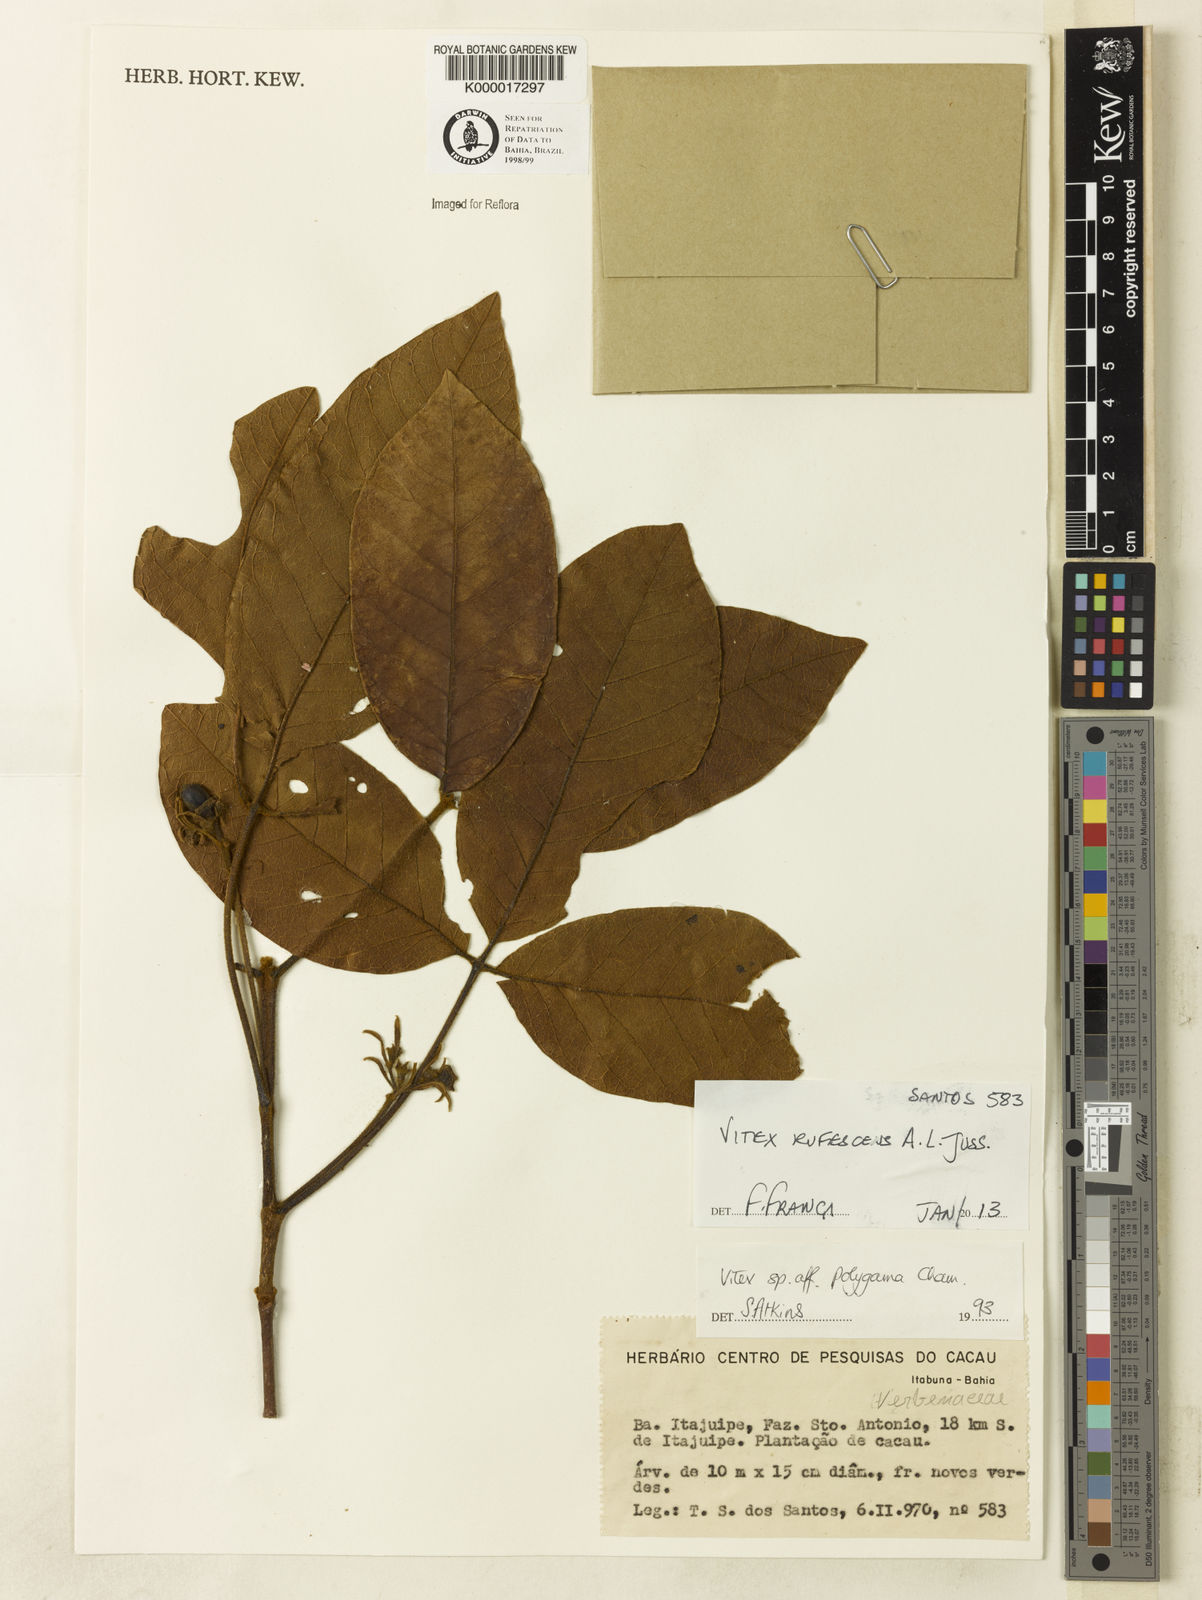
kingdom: Plantae
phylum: Tracheophyta
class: Magnoliopsida
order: Lamiales
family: Lamiaceae
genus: Vitex
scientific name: Vitex rufescens
